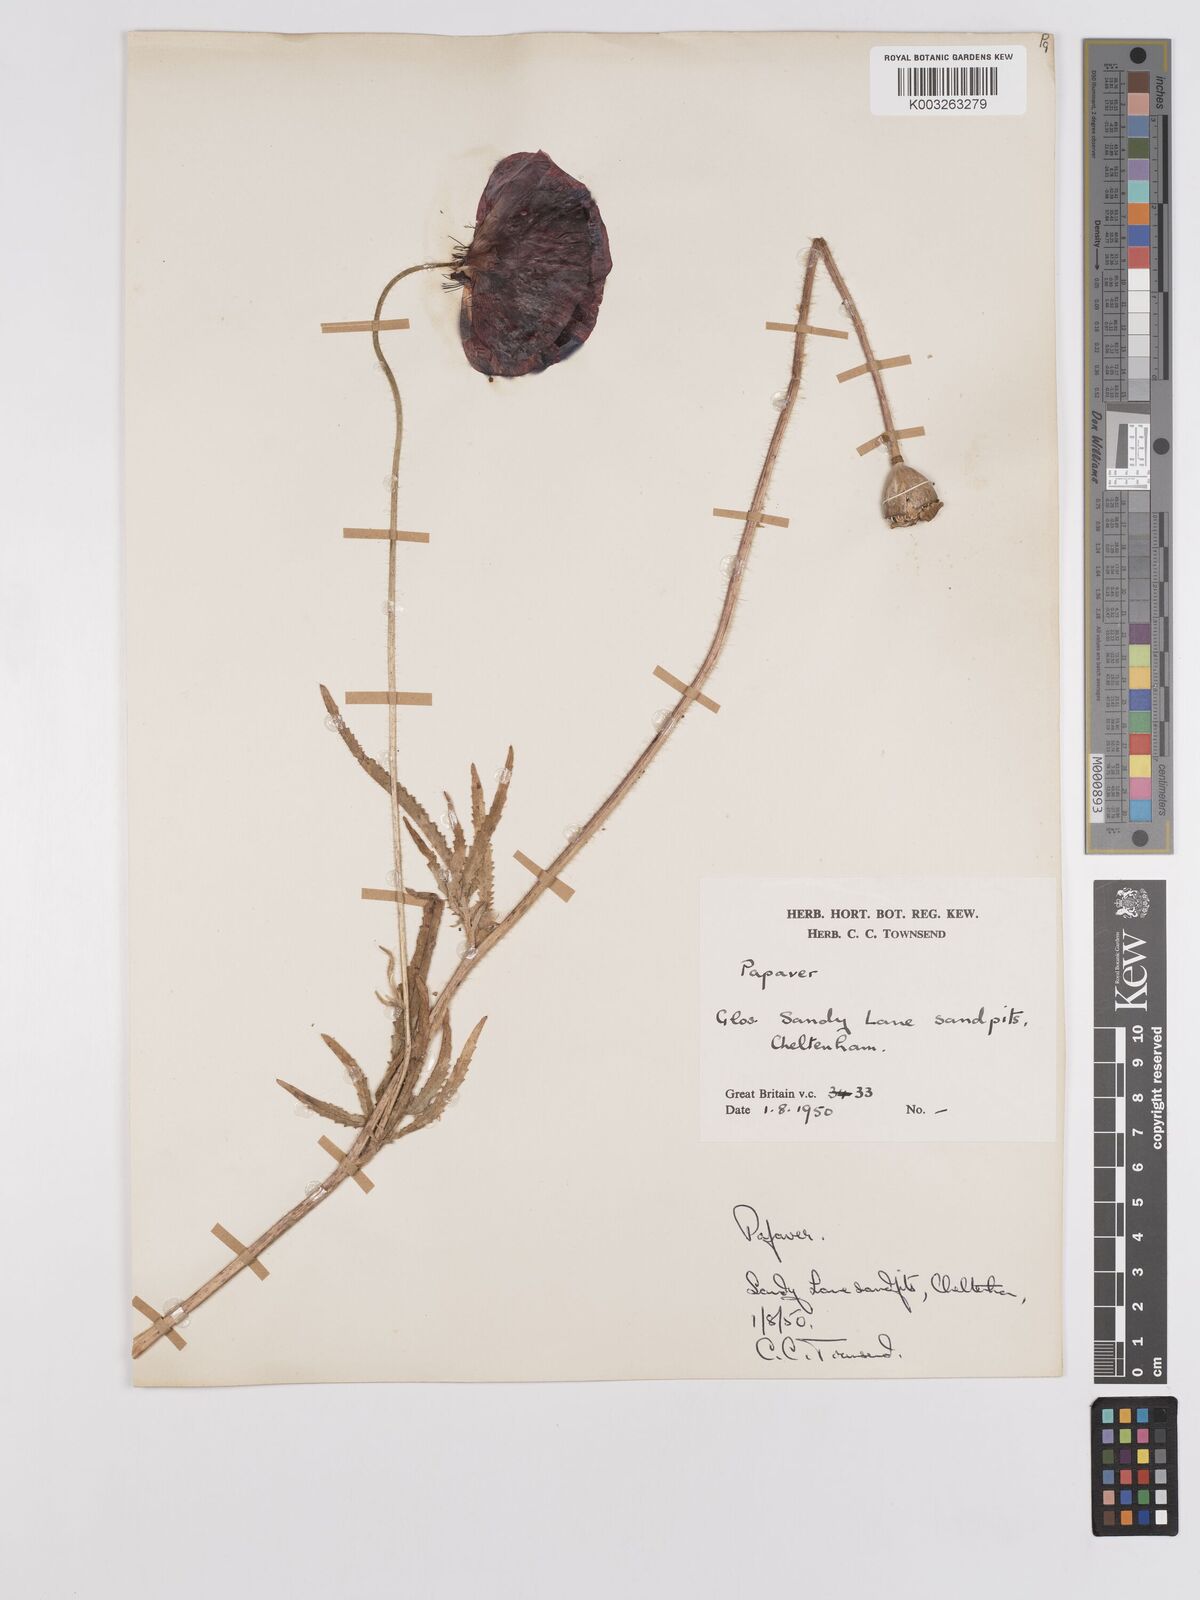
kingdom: Plantae
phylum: Tracheophyta
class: Magnoliopsida
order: Ranunculales
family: Papaveraceae
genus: Papaver
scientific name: Papaver
